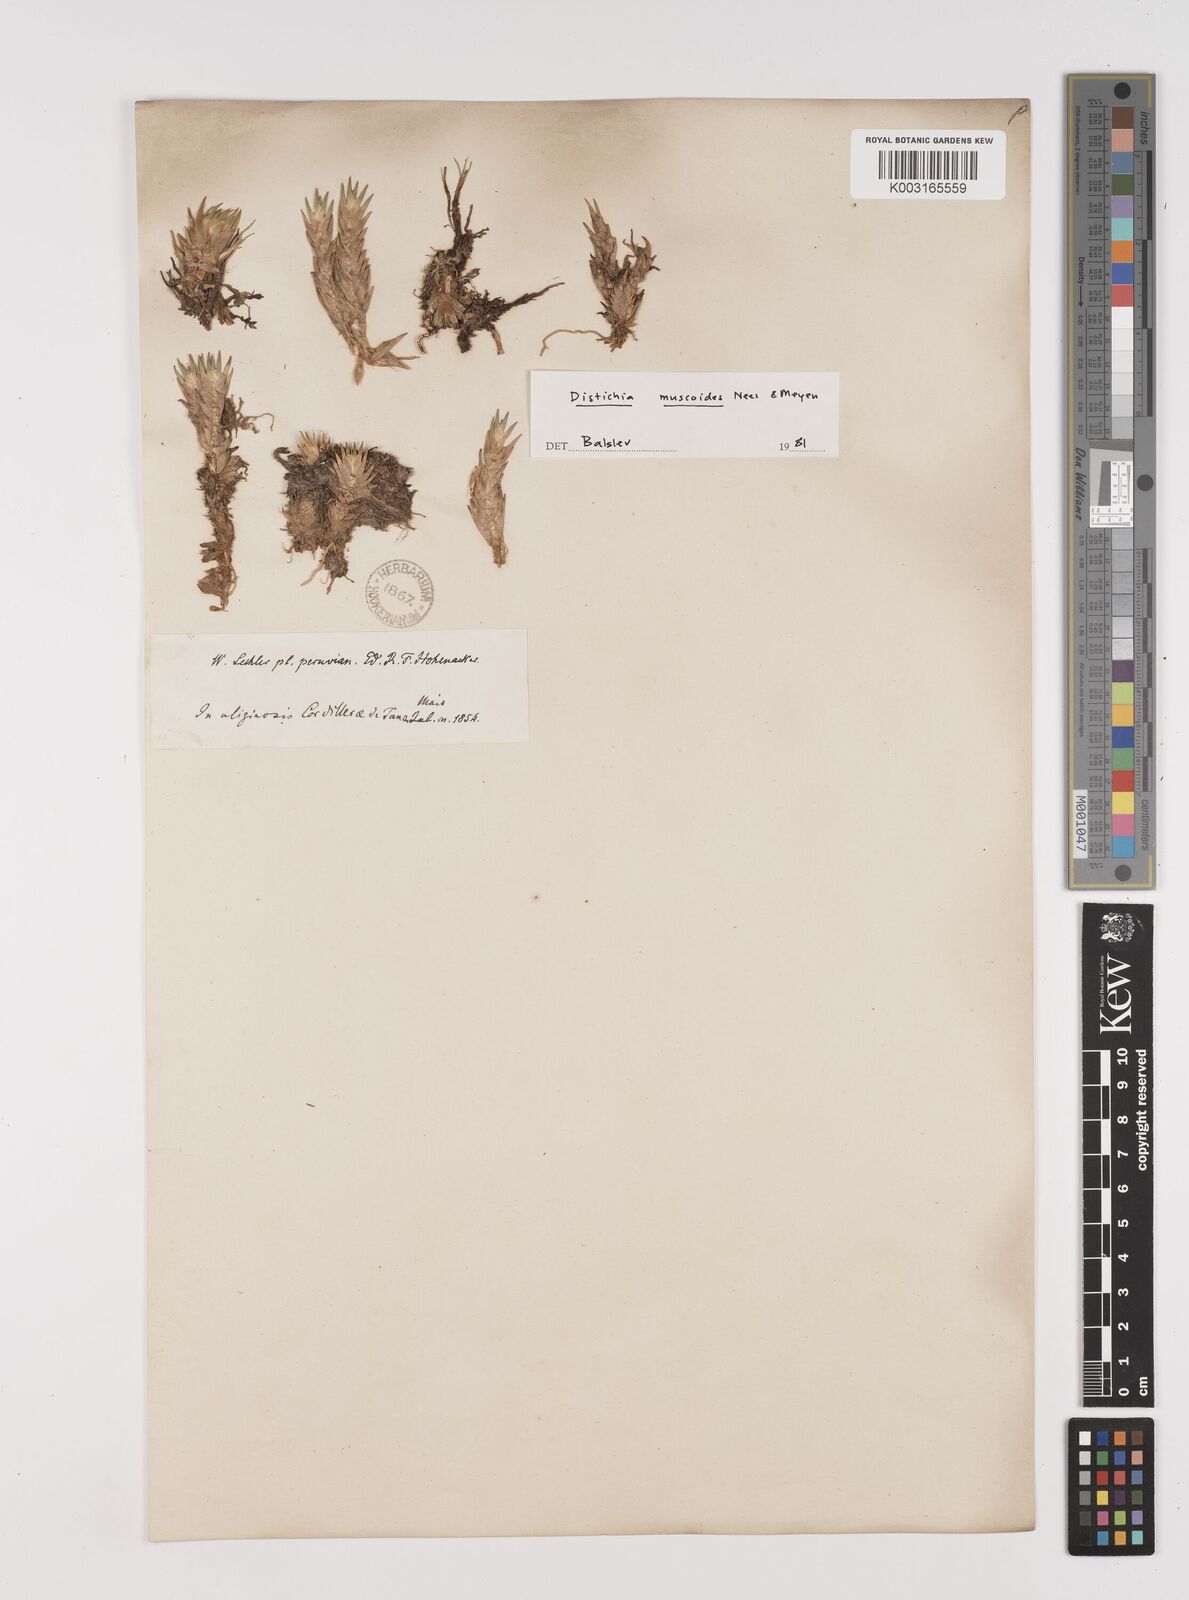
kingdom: Plantae
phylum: Tracheophyta
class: Liliopsida
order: Poales
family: Juncaceae
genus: Distichia
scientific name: Distichia muscoides
